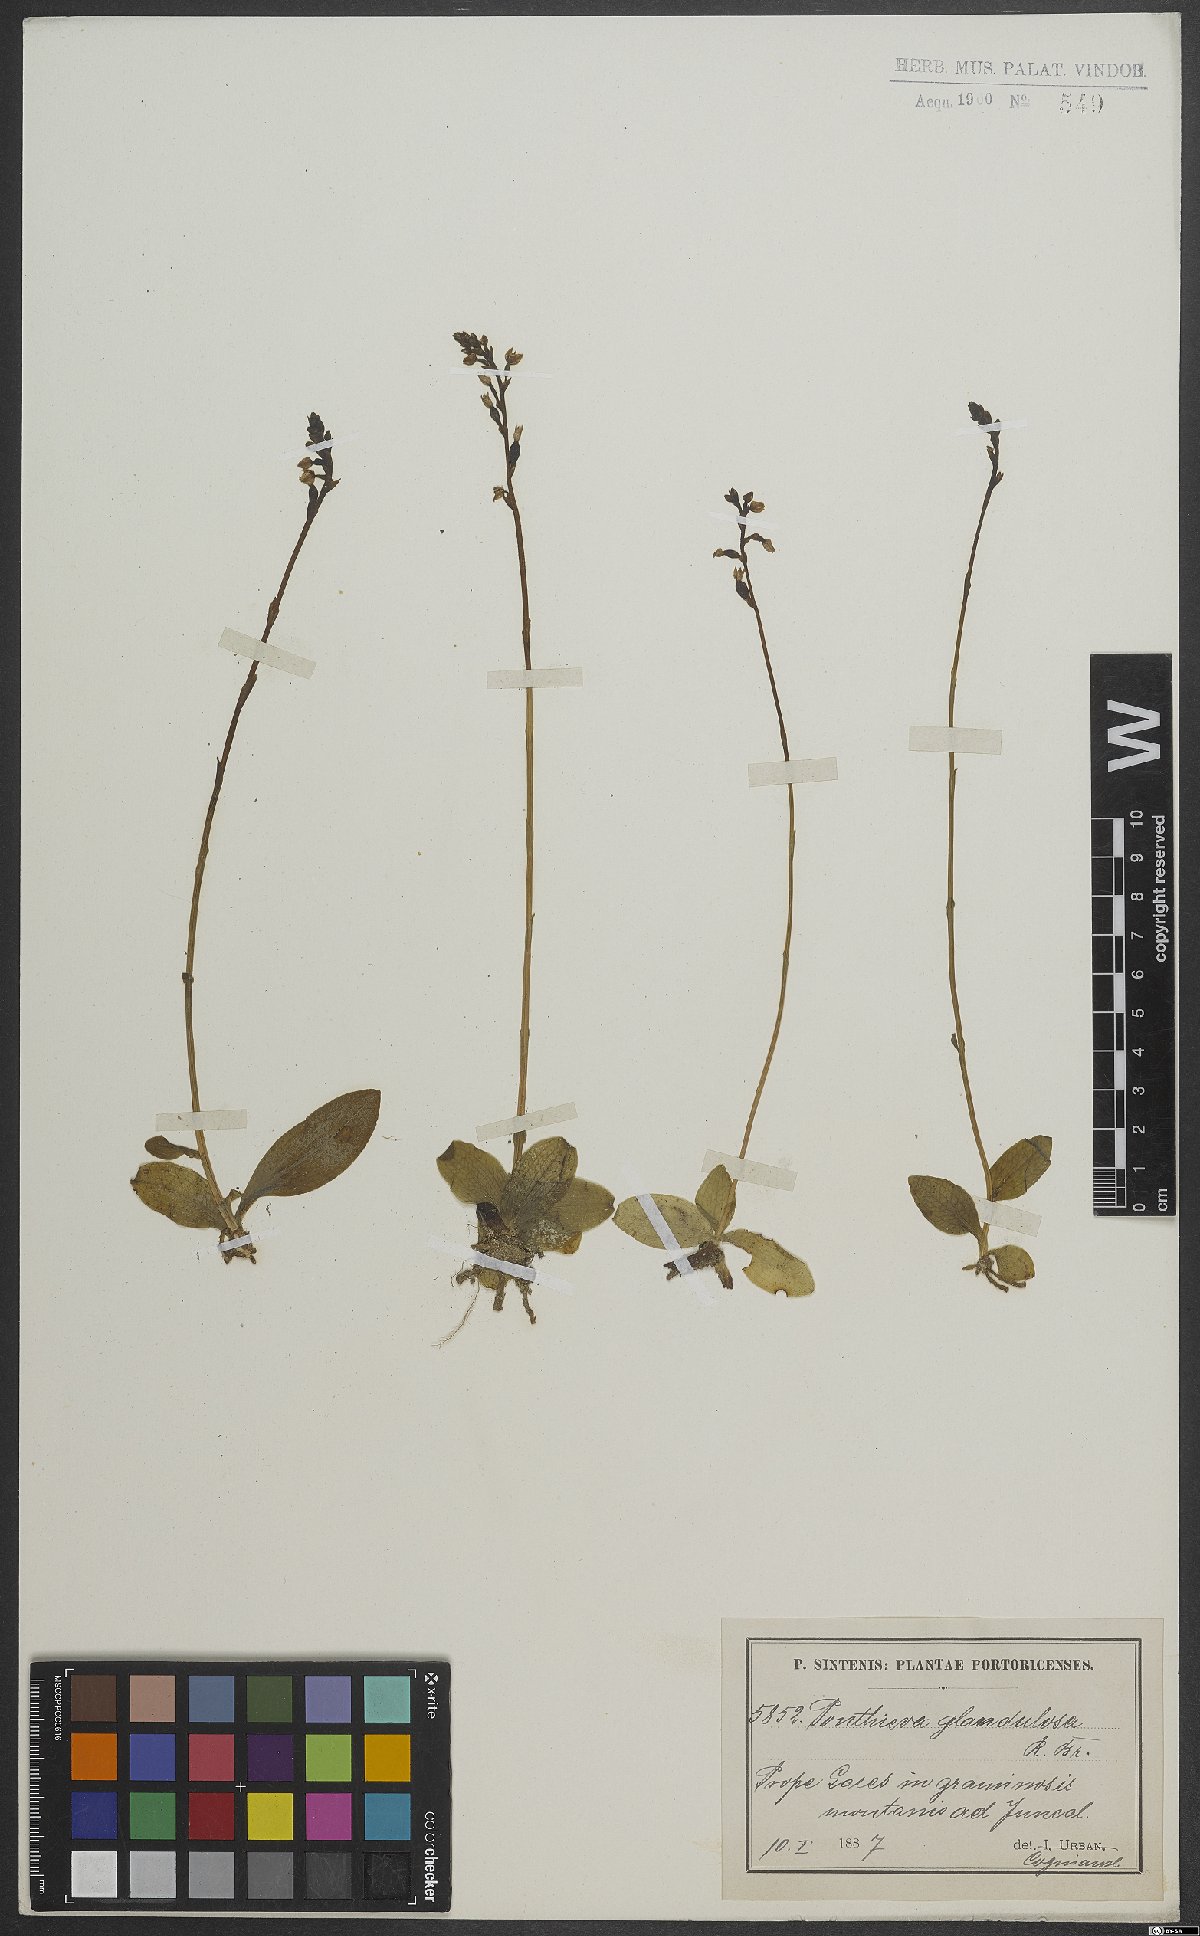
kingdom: Plantae
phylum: Tracheophyta
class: Liliopsida
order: Asparagales
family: Orchidaceae
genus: Ponthieva
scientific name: Ponthieva glandulosa
